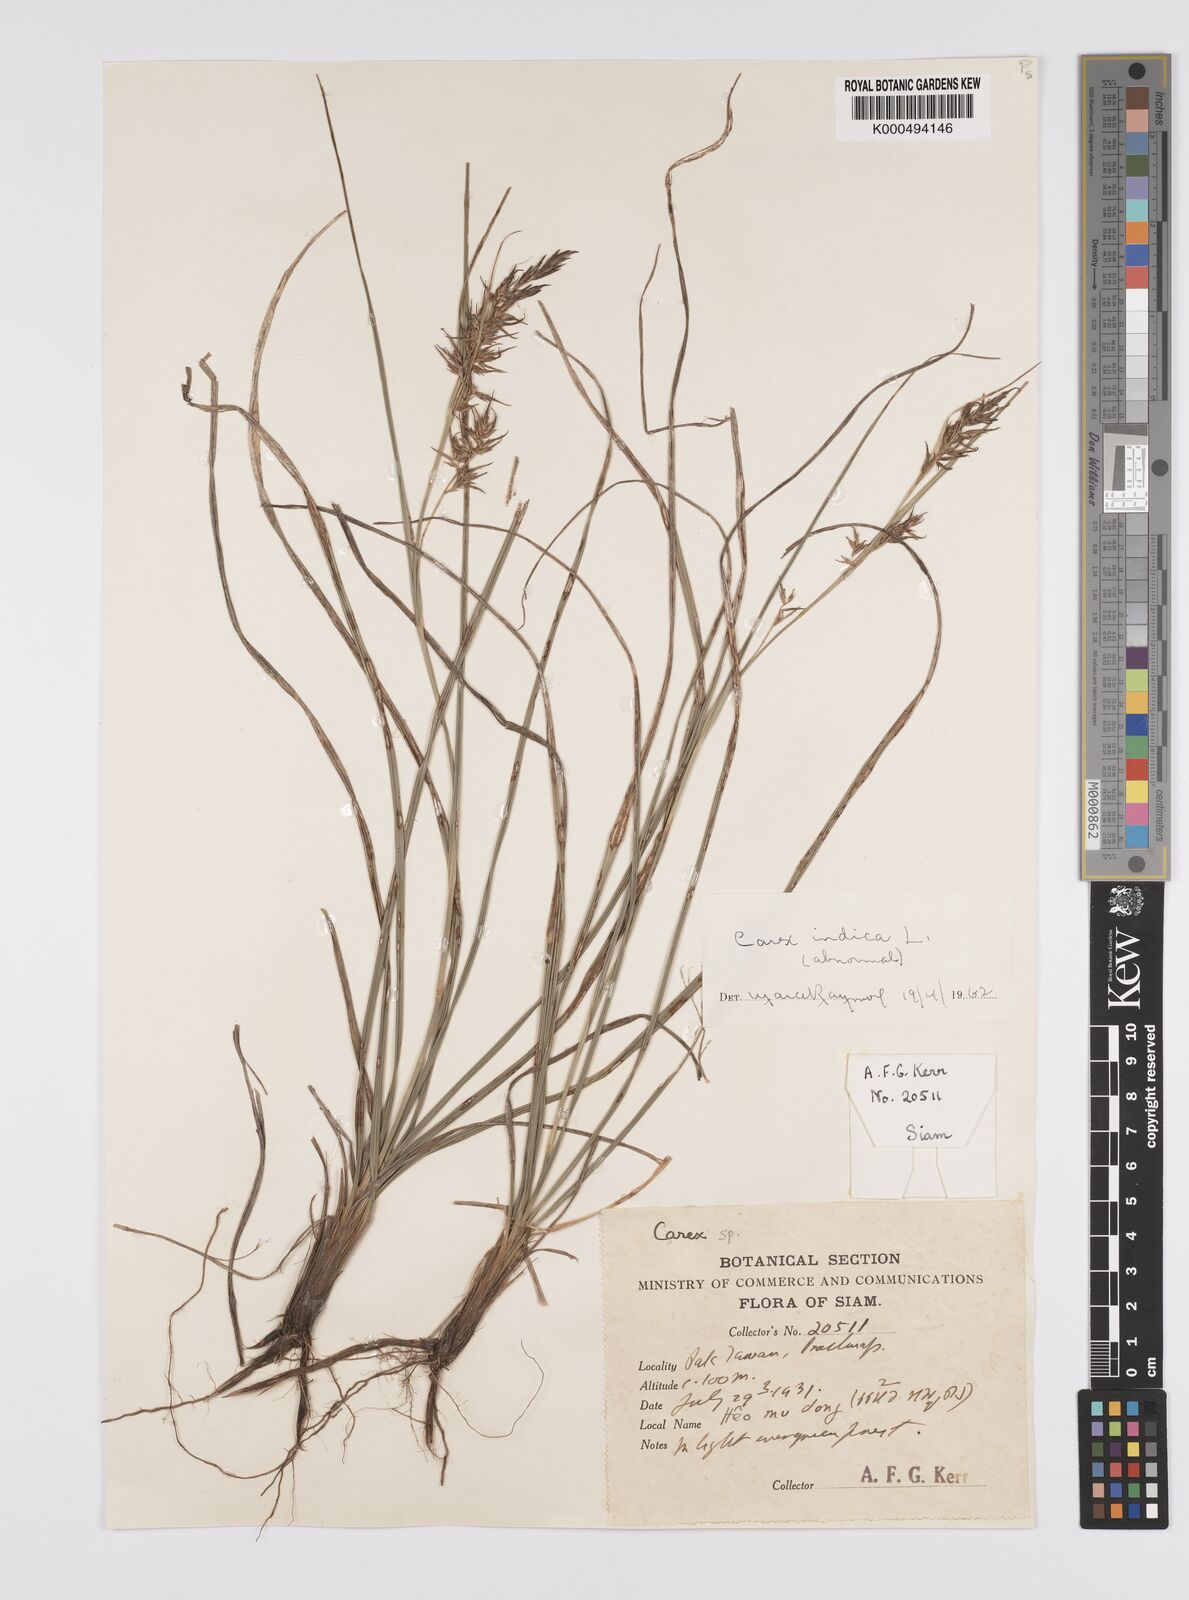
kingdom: Plantae
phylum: Tracheophyta
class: Liliopsida
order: Poales
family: Cyperaceae
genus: Carex
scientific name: Carex indica
